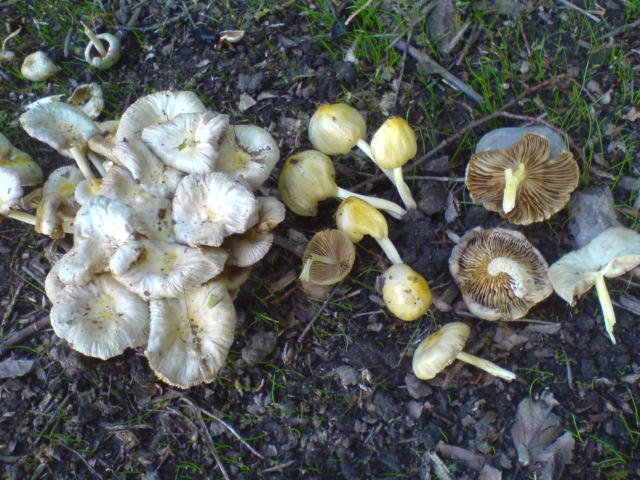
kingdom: Fungi
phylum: Basidiomycota
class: Agaricomycetes
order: Agaricales
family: Bolbitiaceae
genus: Bolbitius
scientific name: Bolbitius titubans
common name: almindelig gulhat
